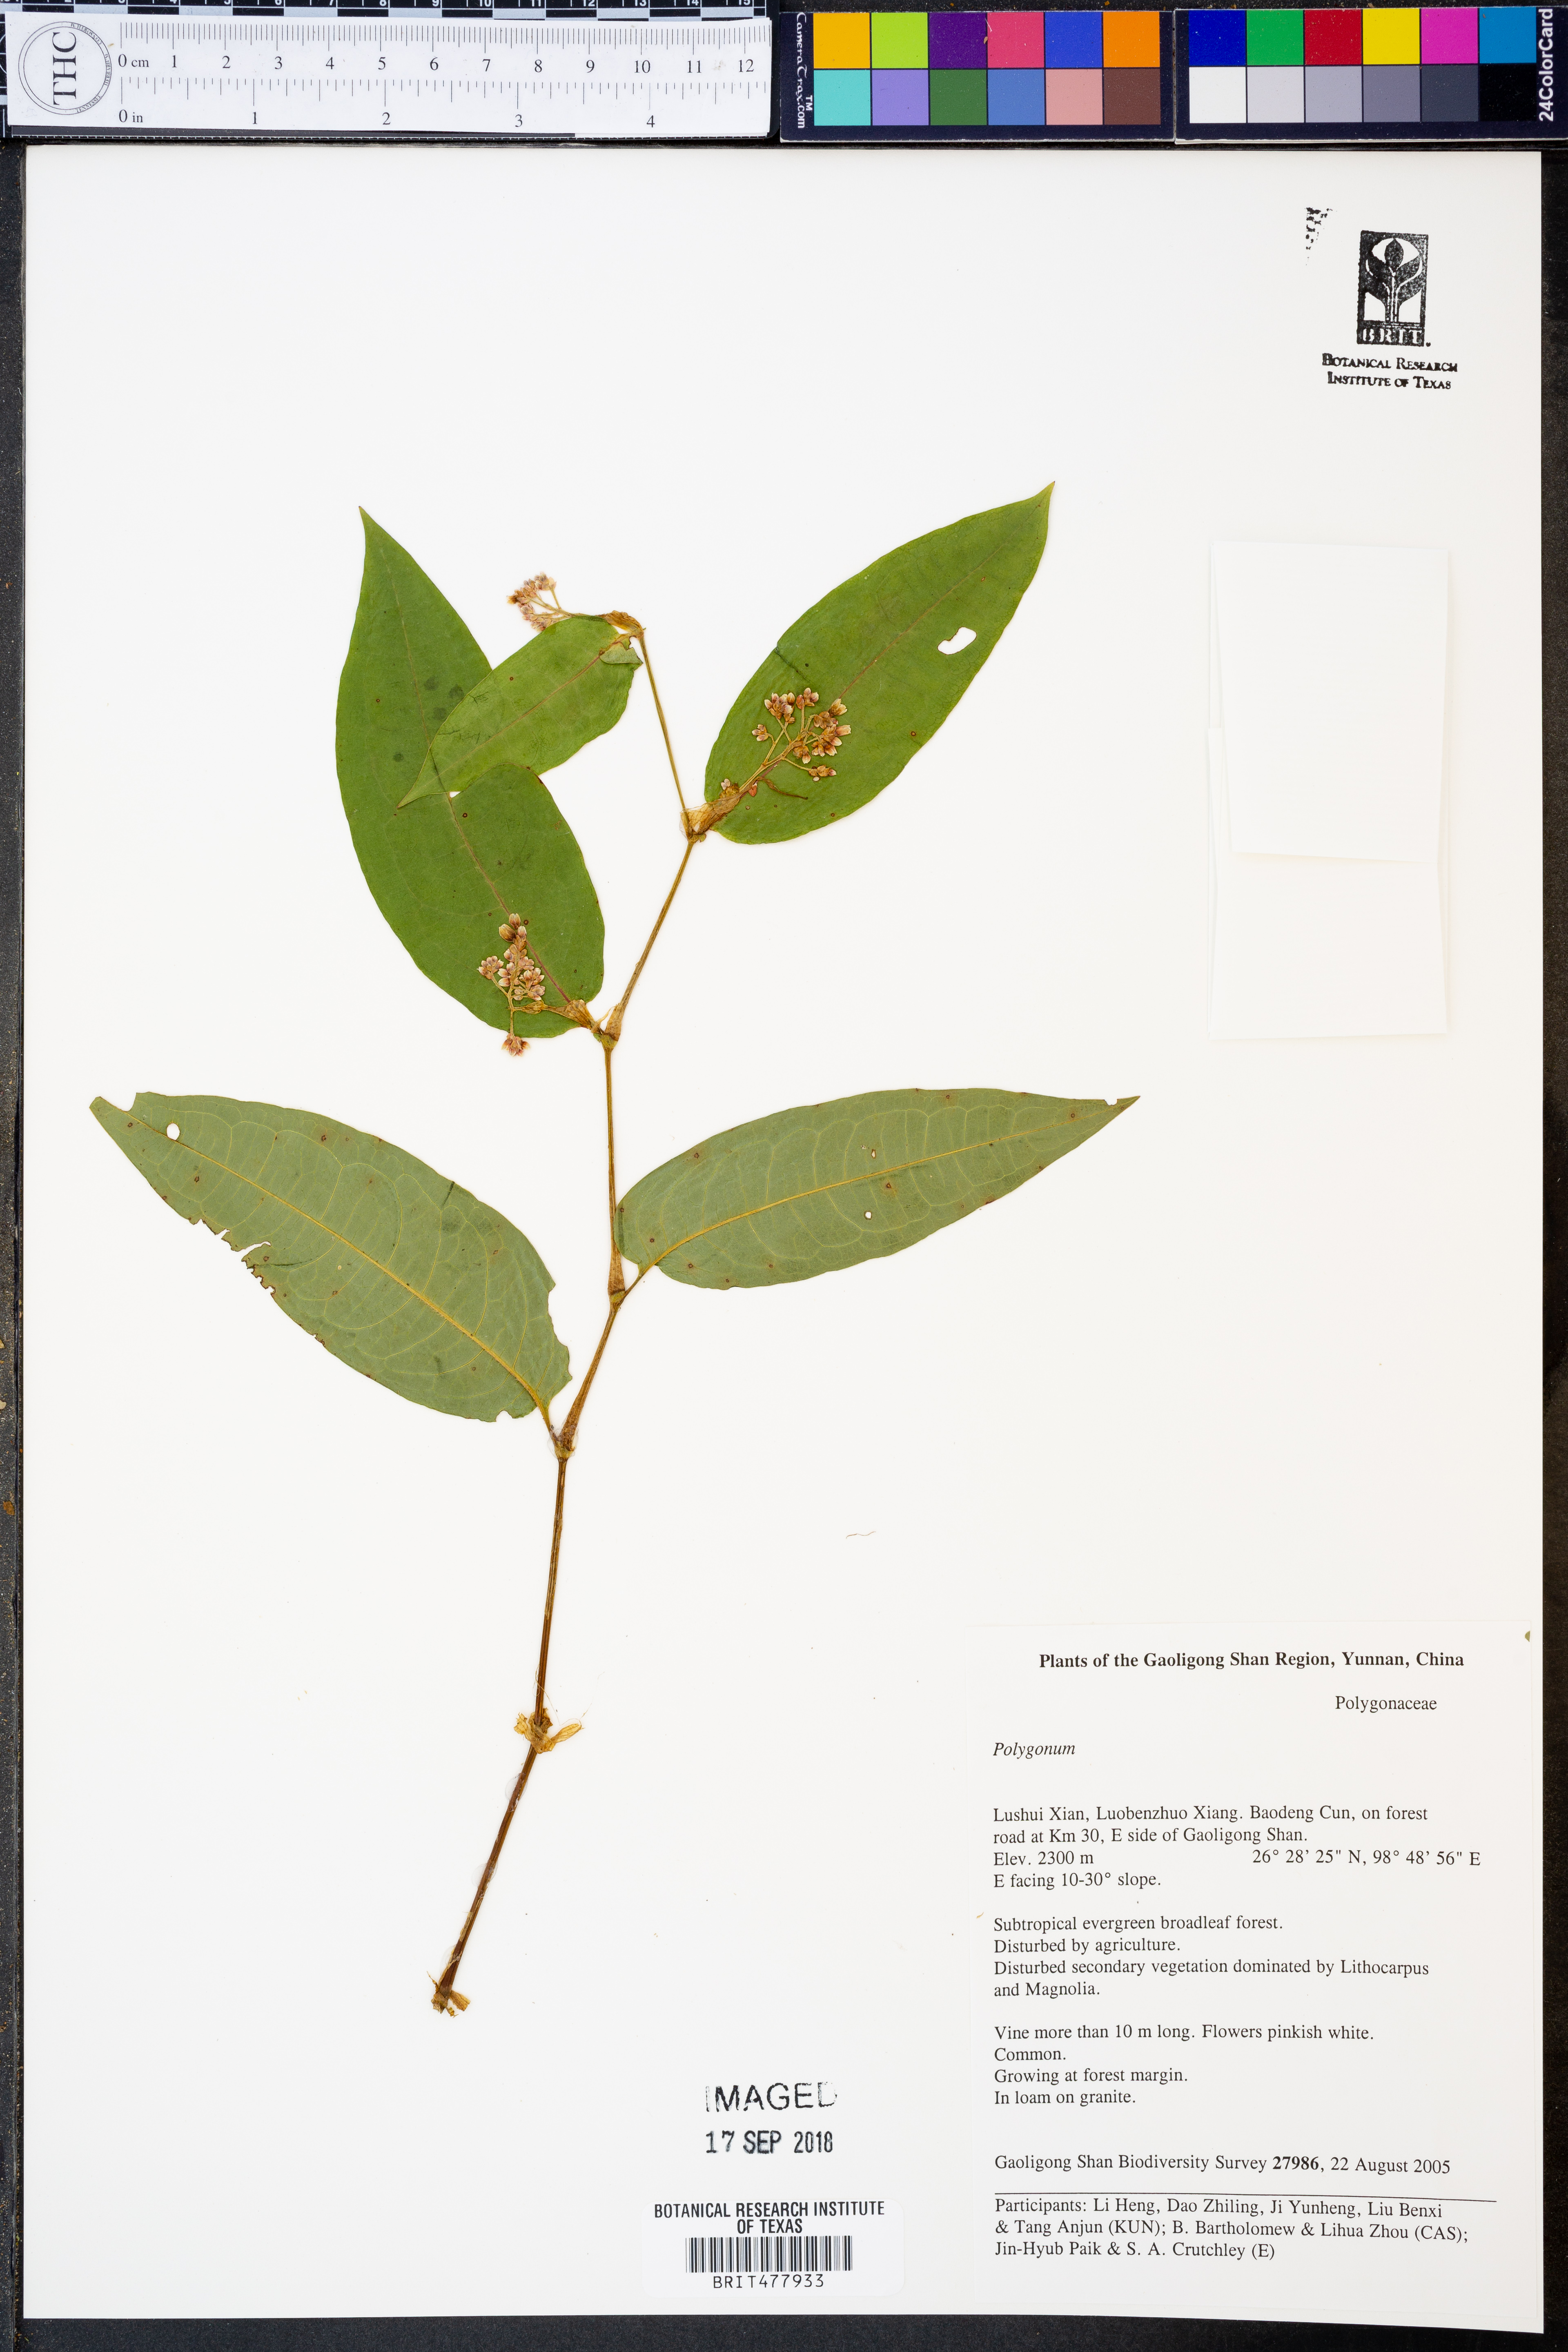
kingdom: Plantae
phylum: Tracheophyta
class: Magnoliopsida
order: Caryophyllales
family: Polygonaceae
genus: Polygonum
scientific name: Polygonum
